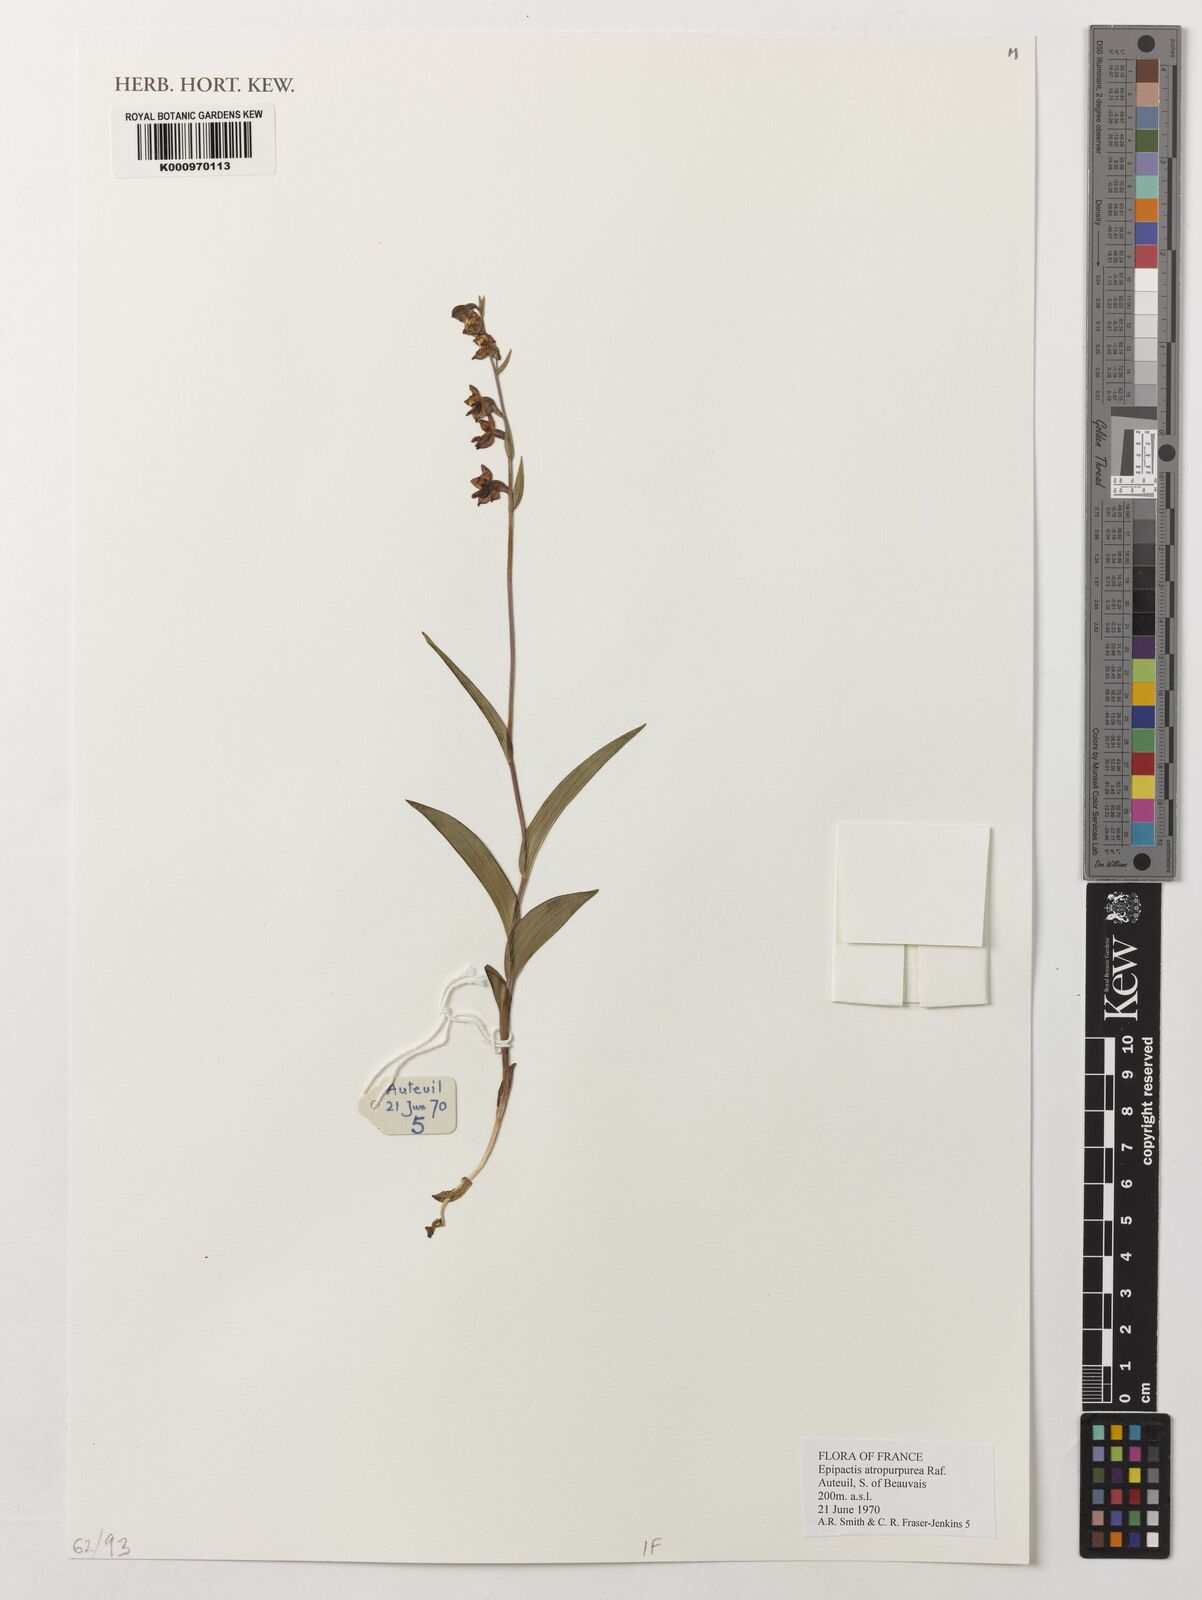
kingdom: Plantae
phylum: Tracheophyta
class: Liliopsida
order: Asparagales
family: Orchidaceae
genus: Epipactis
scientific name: Epipactis atrorubens
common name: Dark-red helleborine
